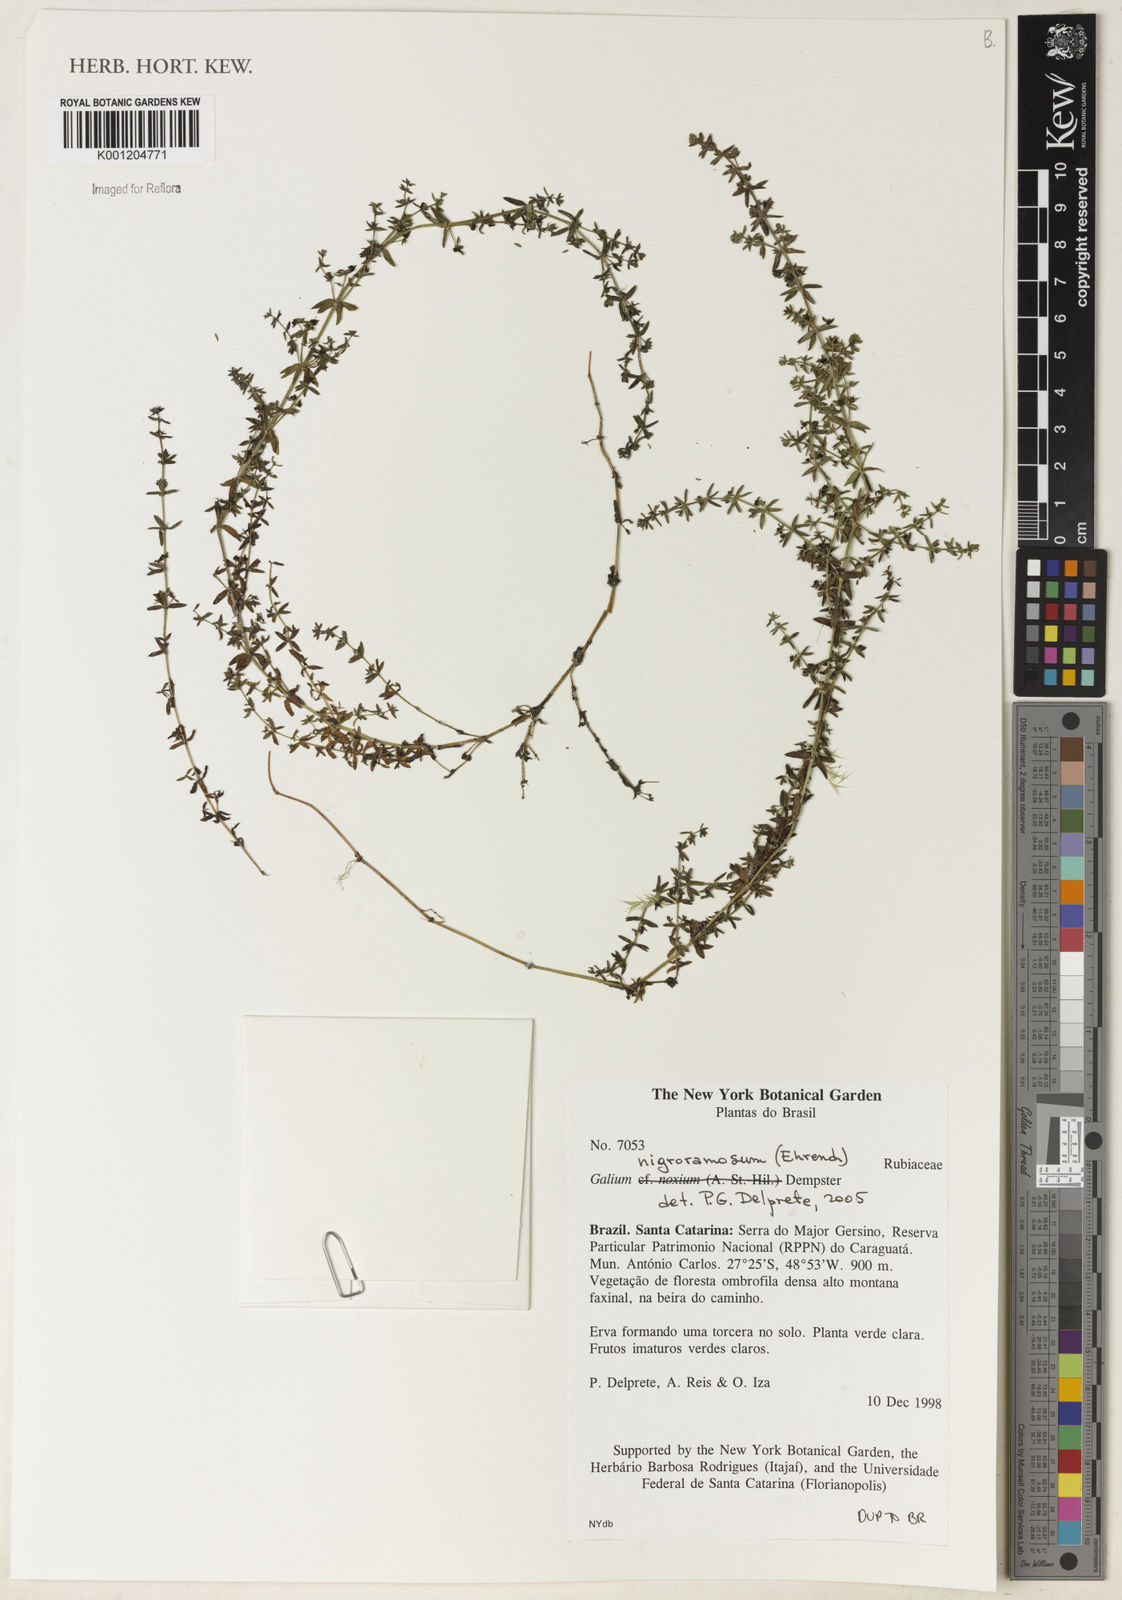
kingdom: Plantae
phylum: Tracheophyta
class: Magnoliopsida
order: Gentianales
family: Rubiaceae
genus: Galium
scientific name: Galium nigroramosum
